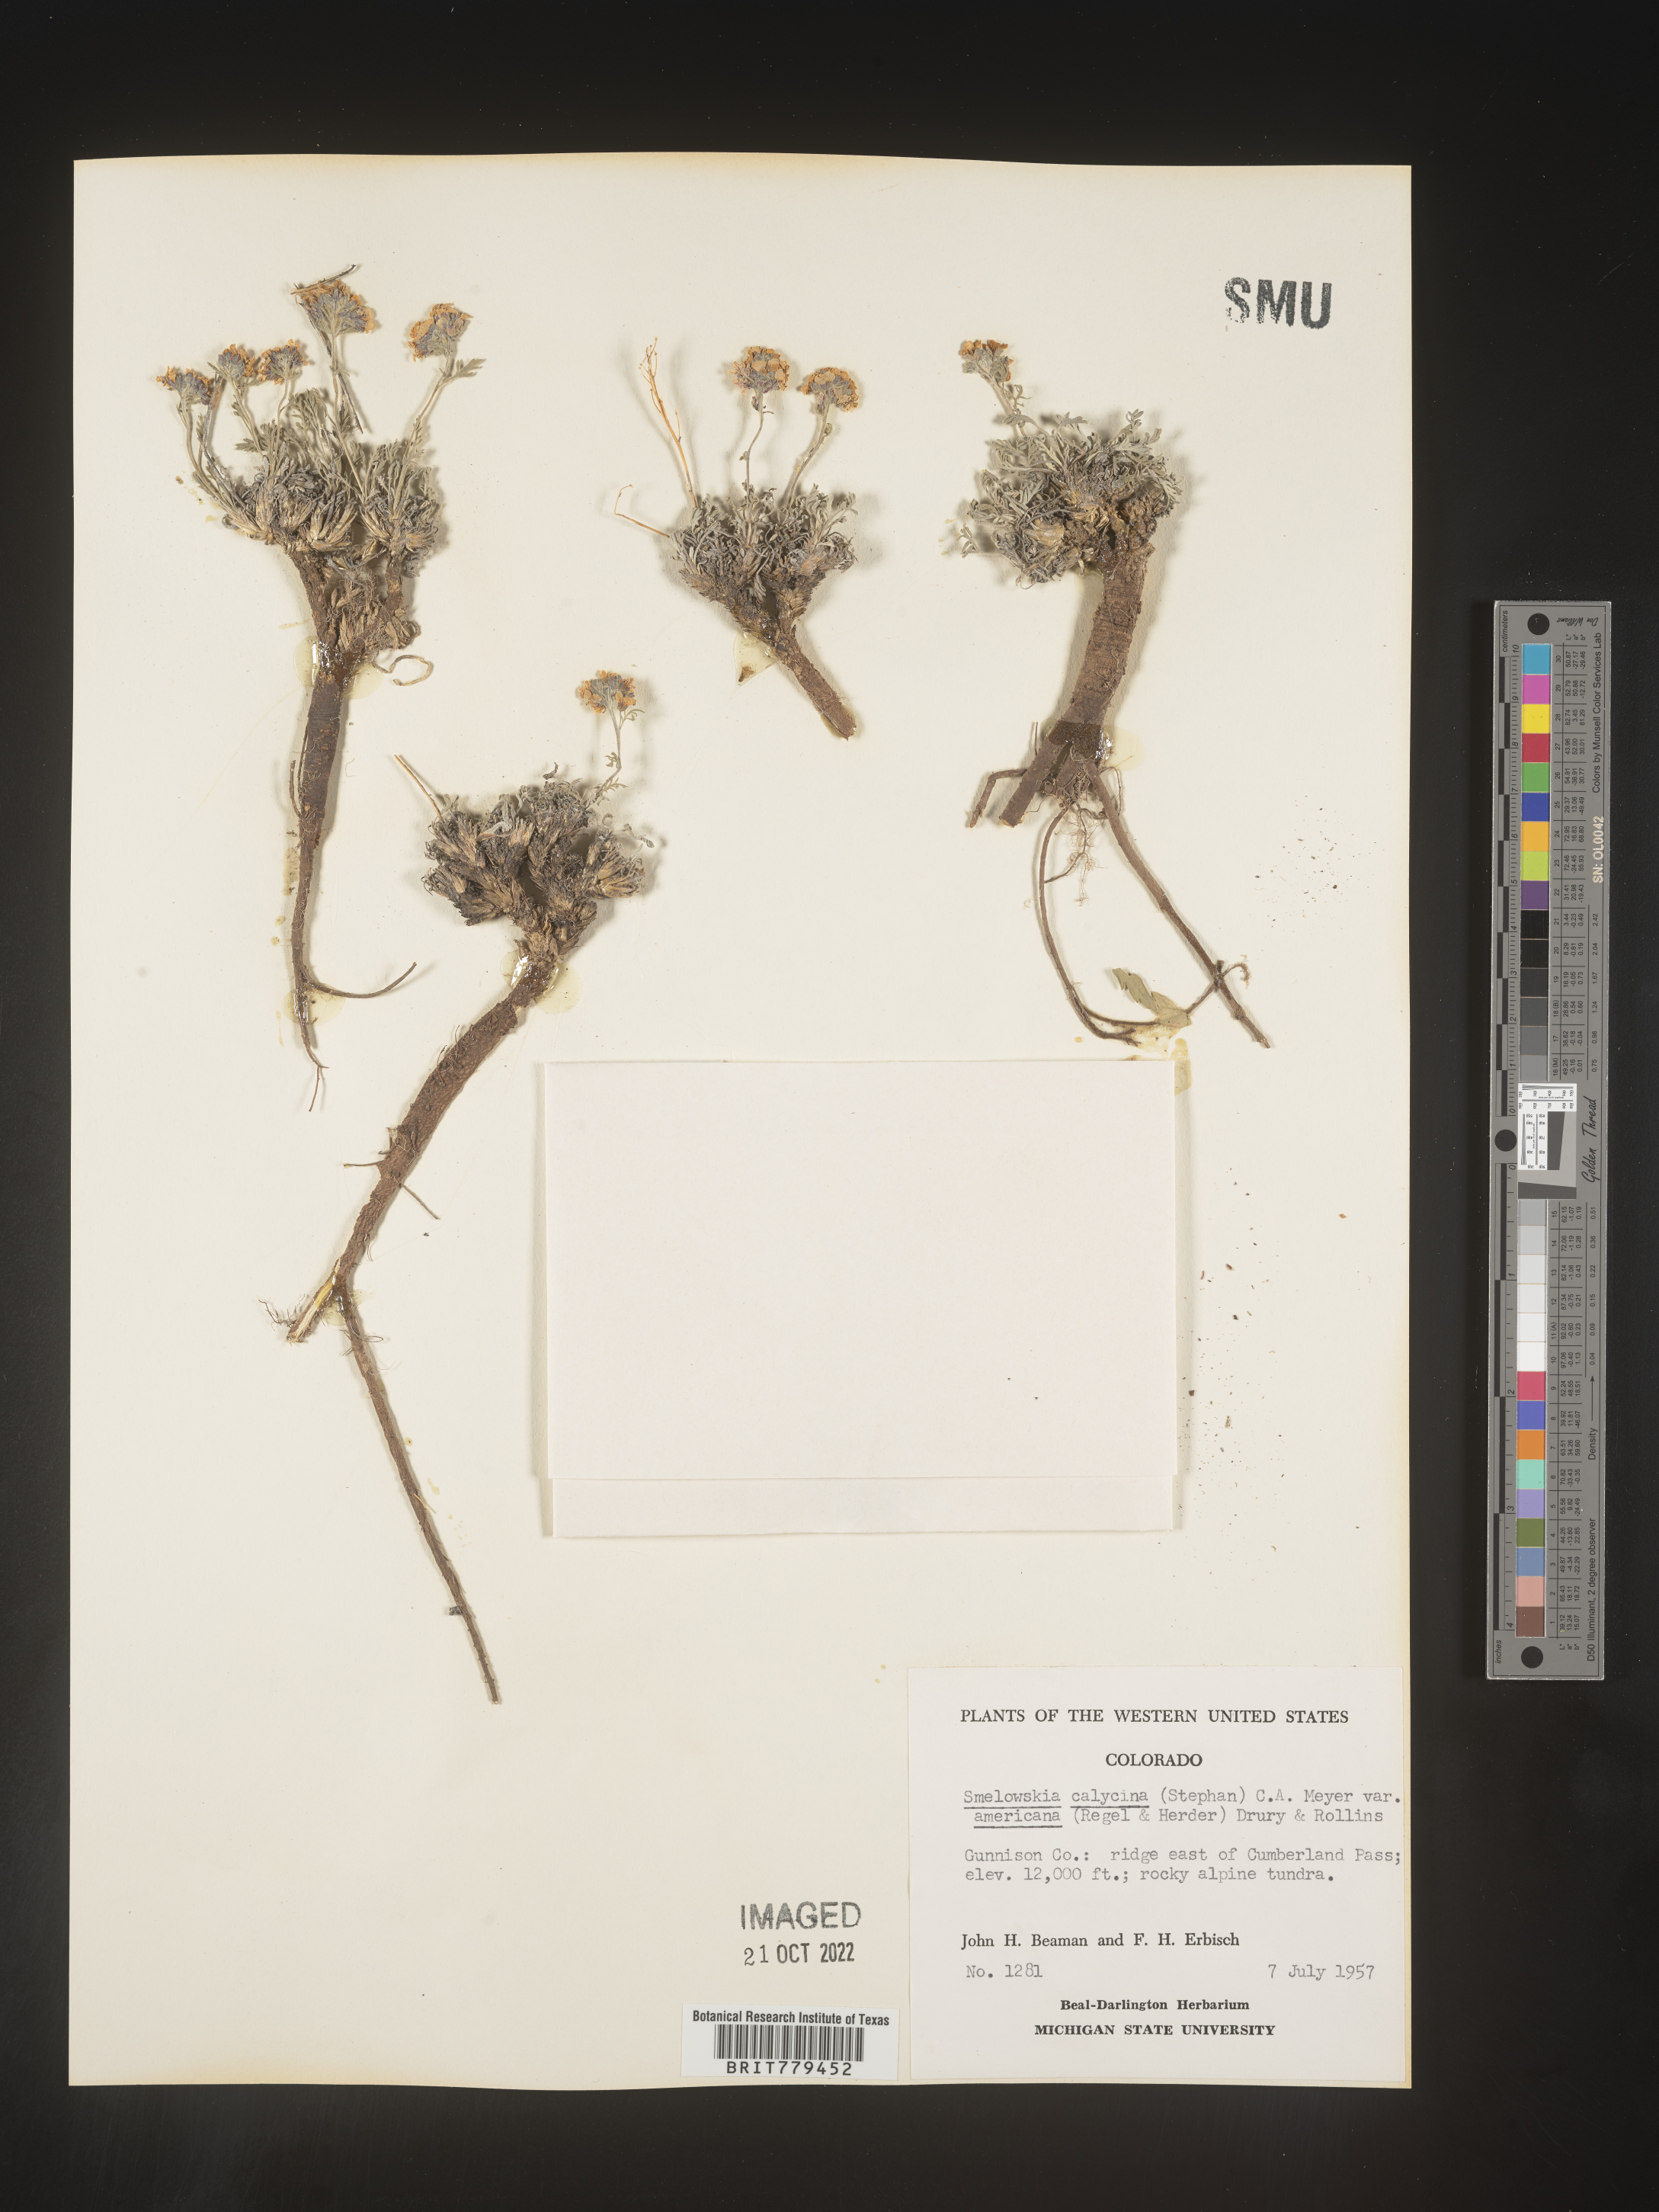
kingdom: Plantae
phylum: Tracheophyta
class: Magnoliopsida
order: Brassicales
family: Brassicaceae
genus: Smelowskia
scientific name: Smelowskia
